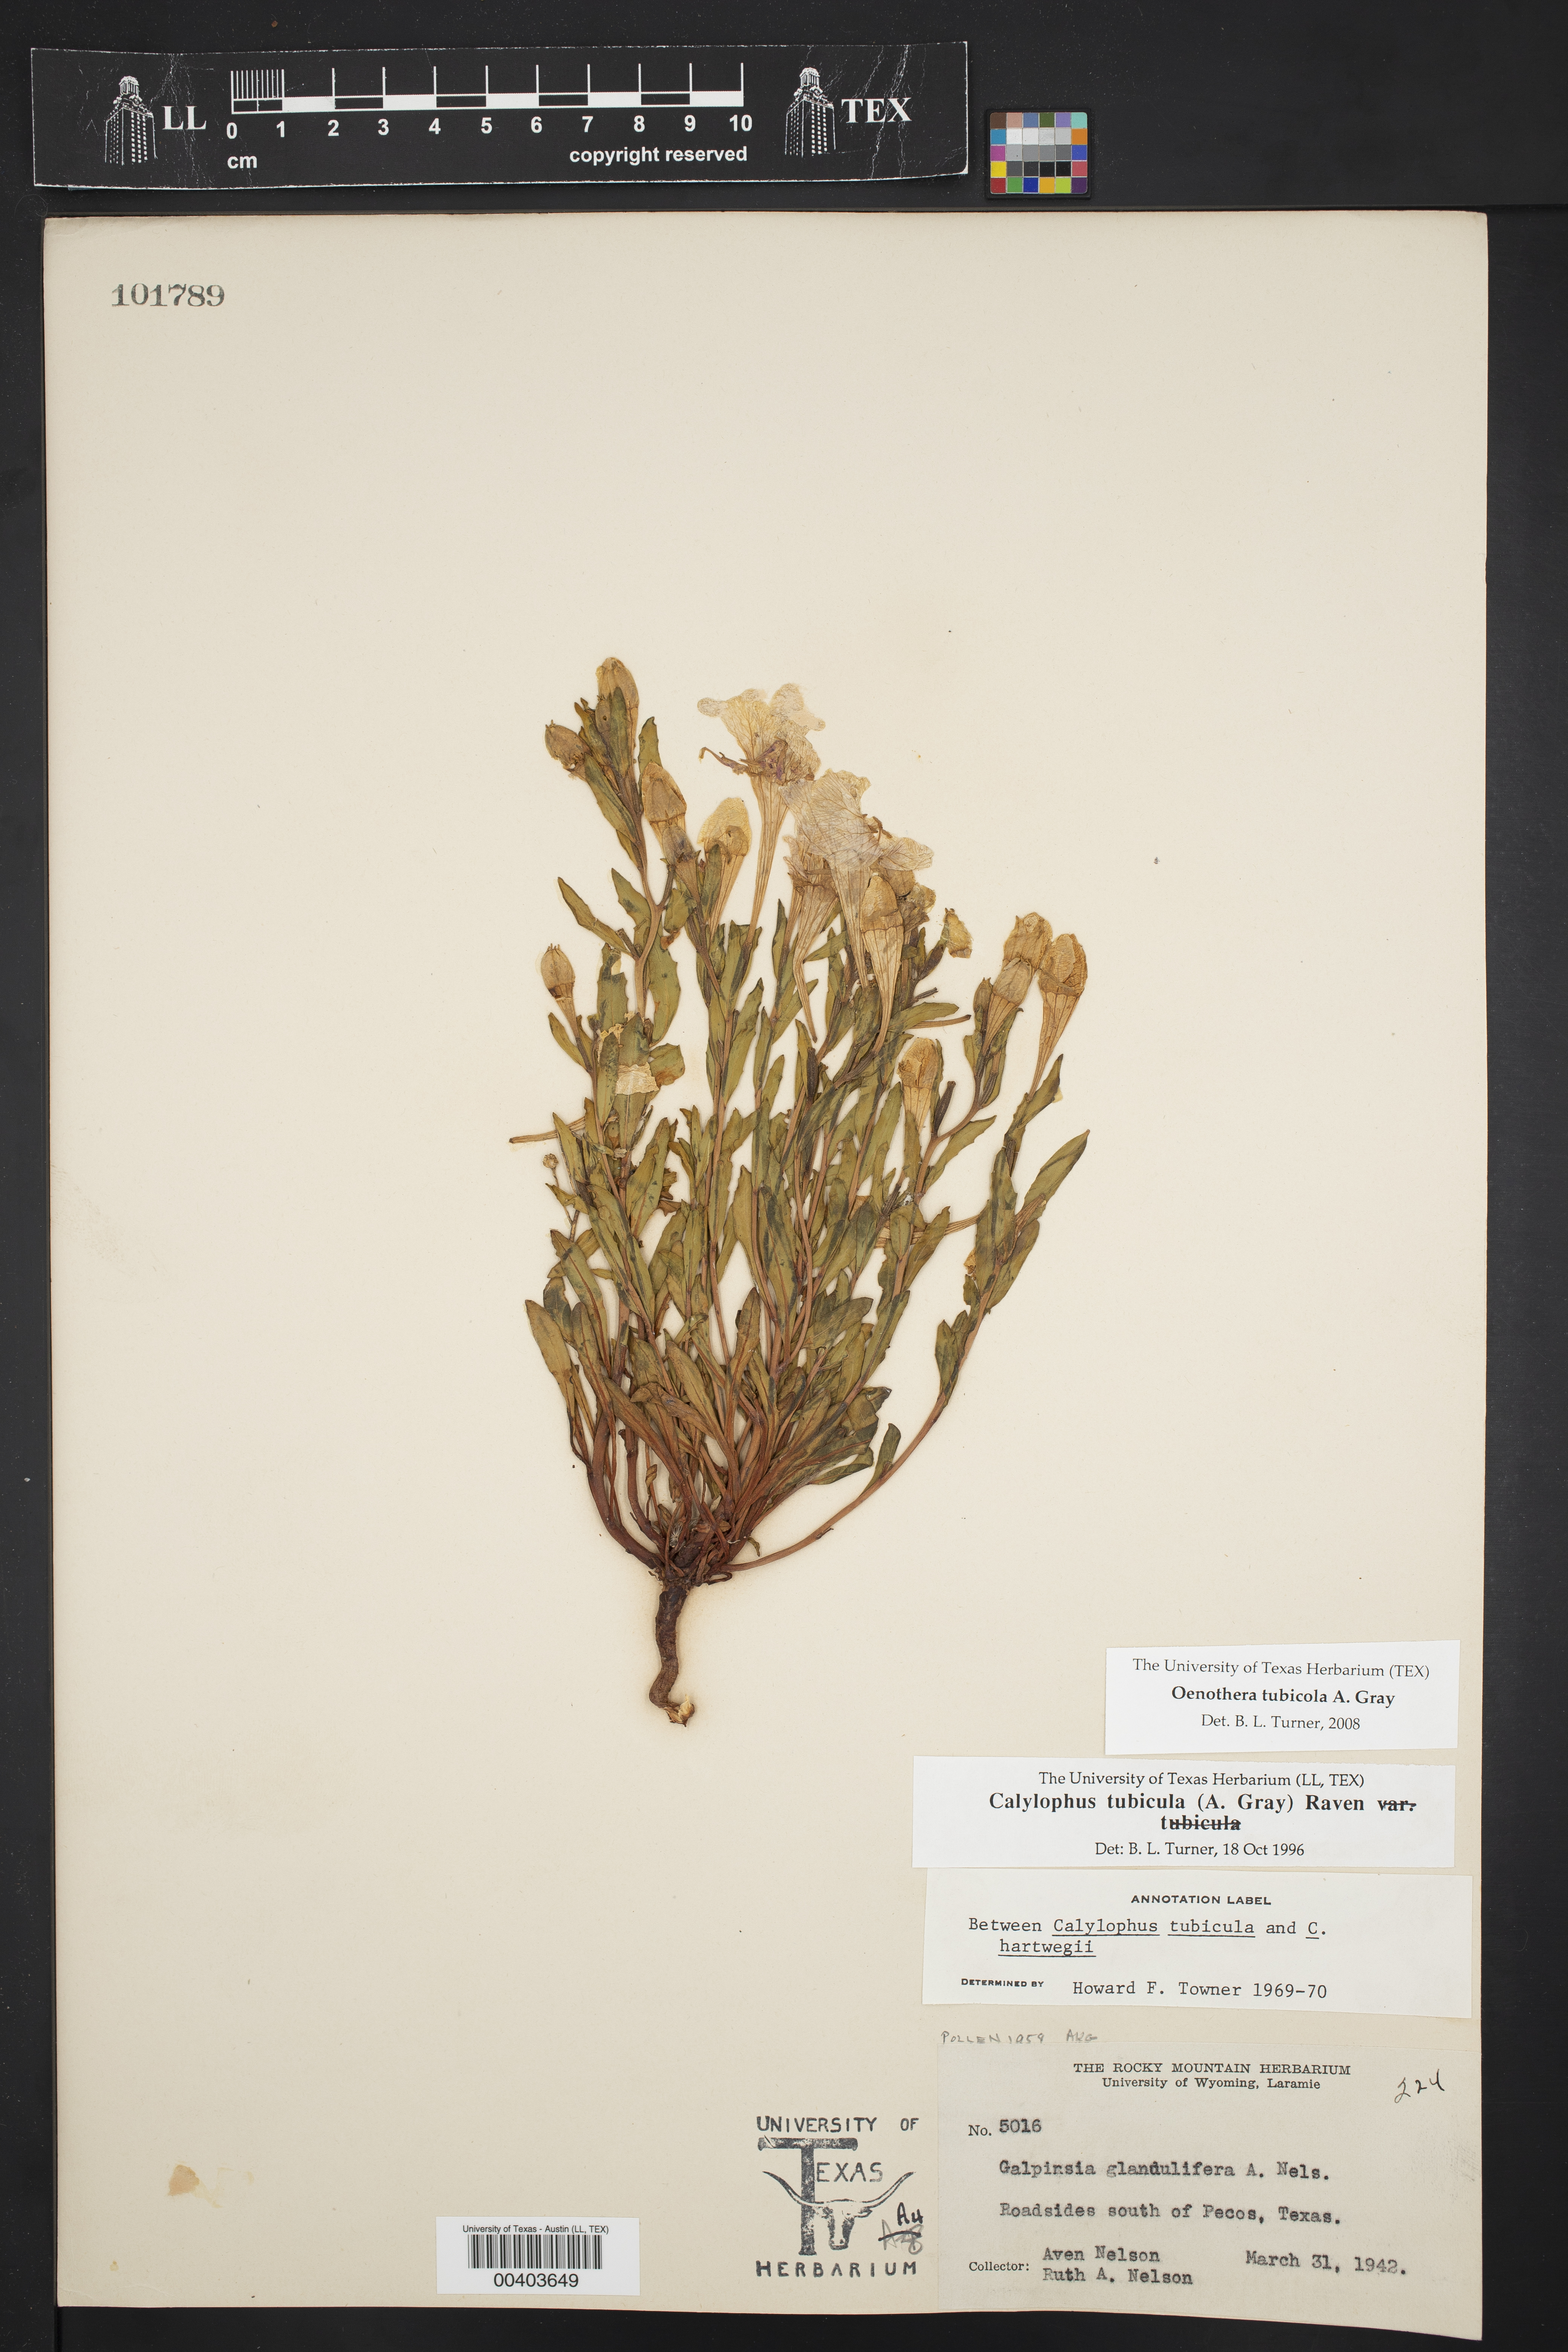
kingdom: Plantae
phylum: Tracheophyta
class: Magnoliopsida
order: Myrtales
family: Onagraceae
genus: Oenothera
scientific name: Oenothera tubicula
